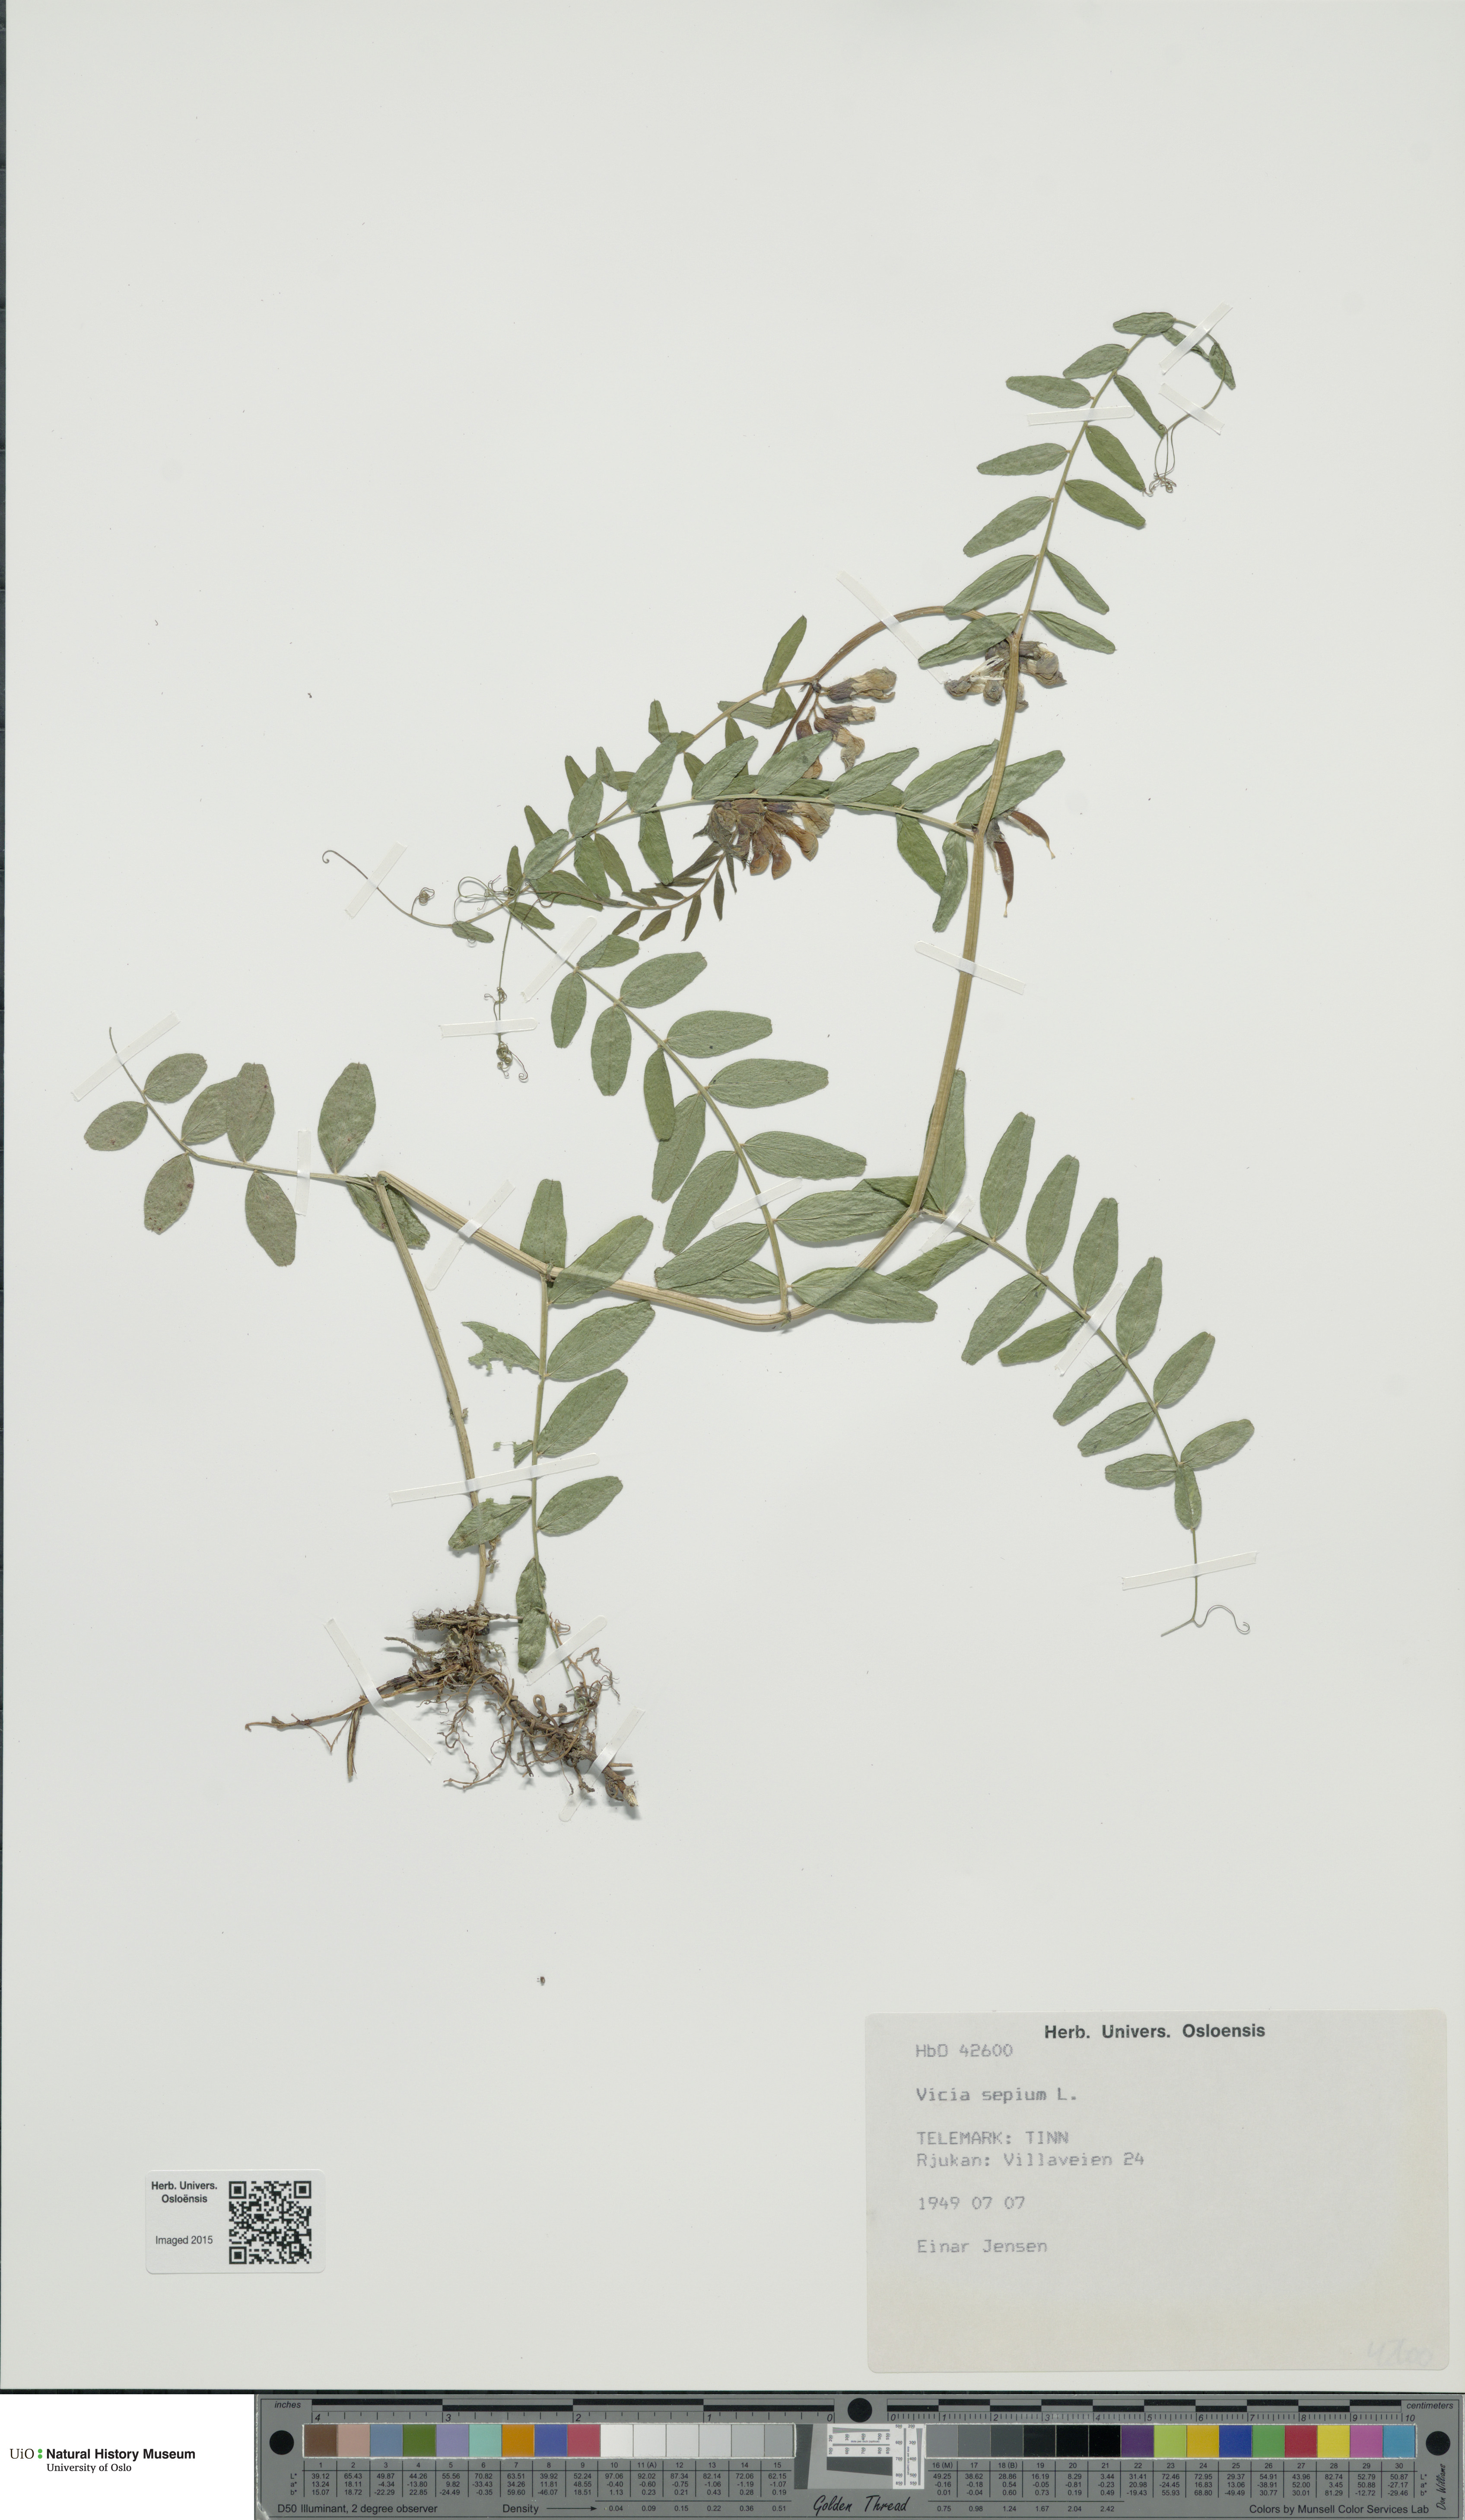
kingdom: Plantae
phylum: Tracheophyta
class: Magnoliopsida
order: Fabales
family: Fabaceae
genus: Vicia
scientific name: Vicia sepium
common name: Bush vetch
